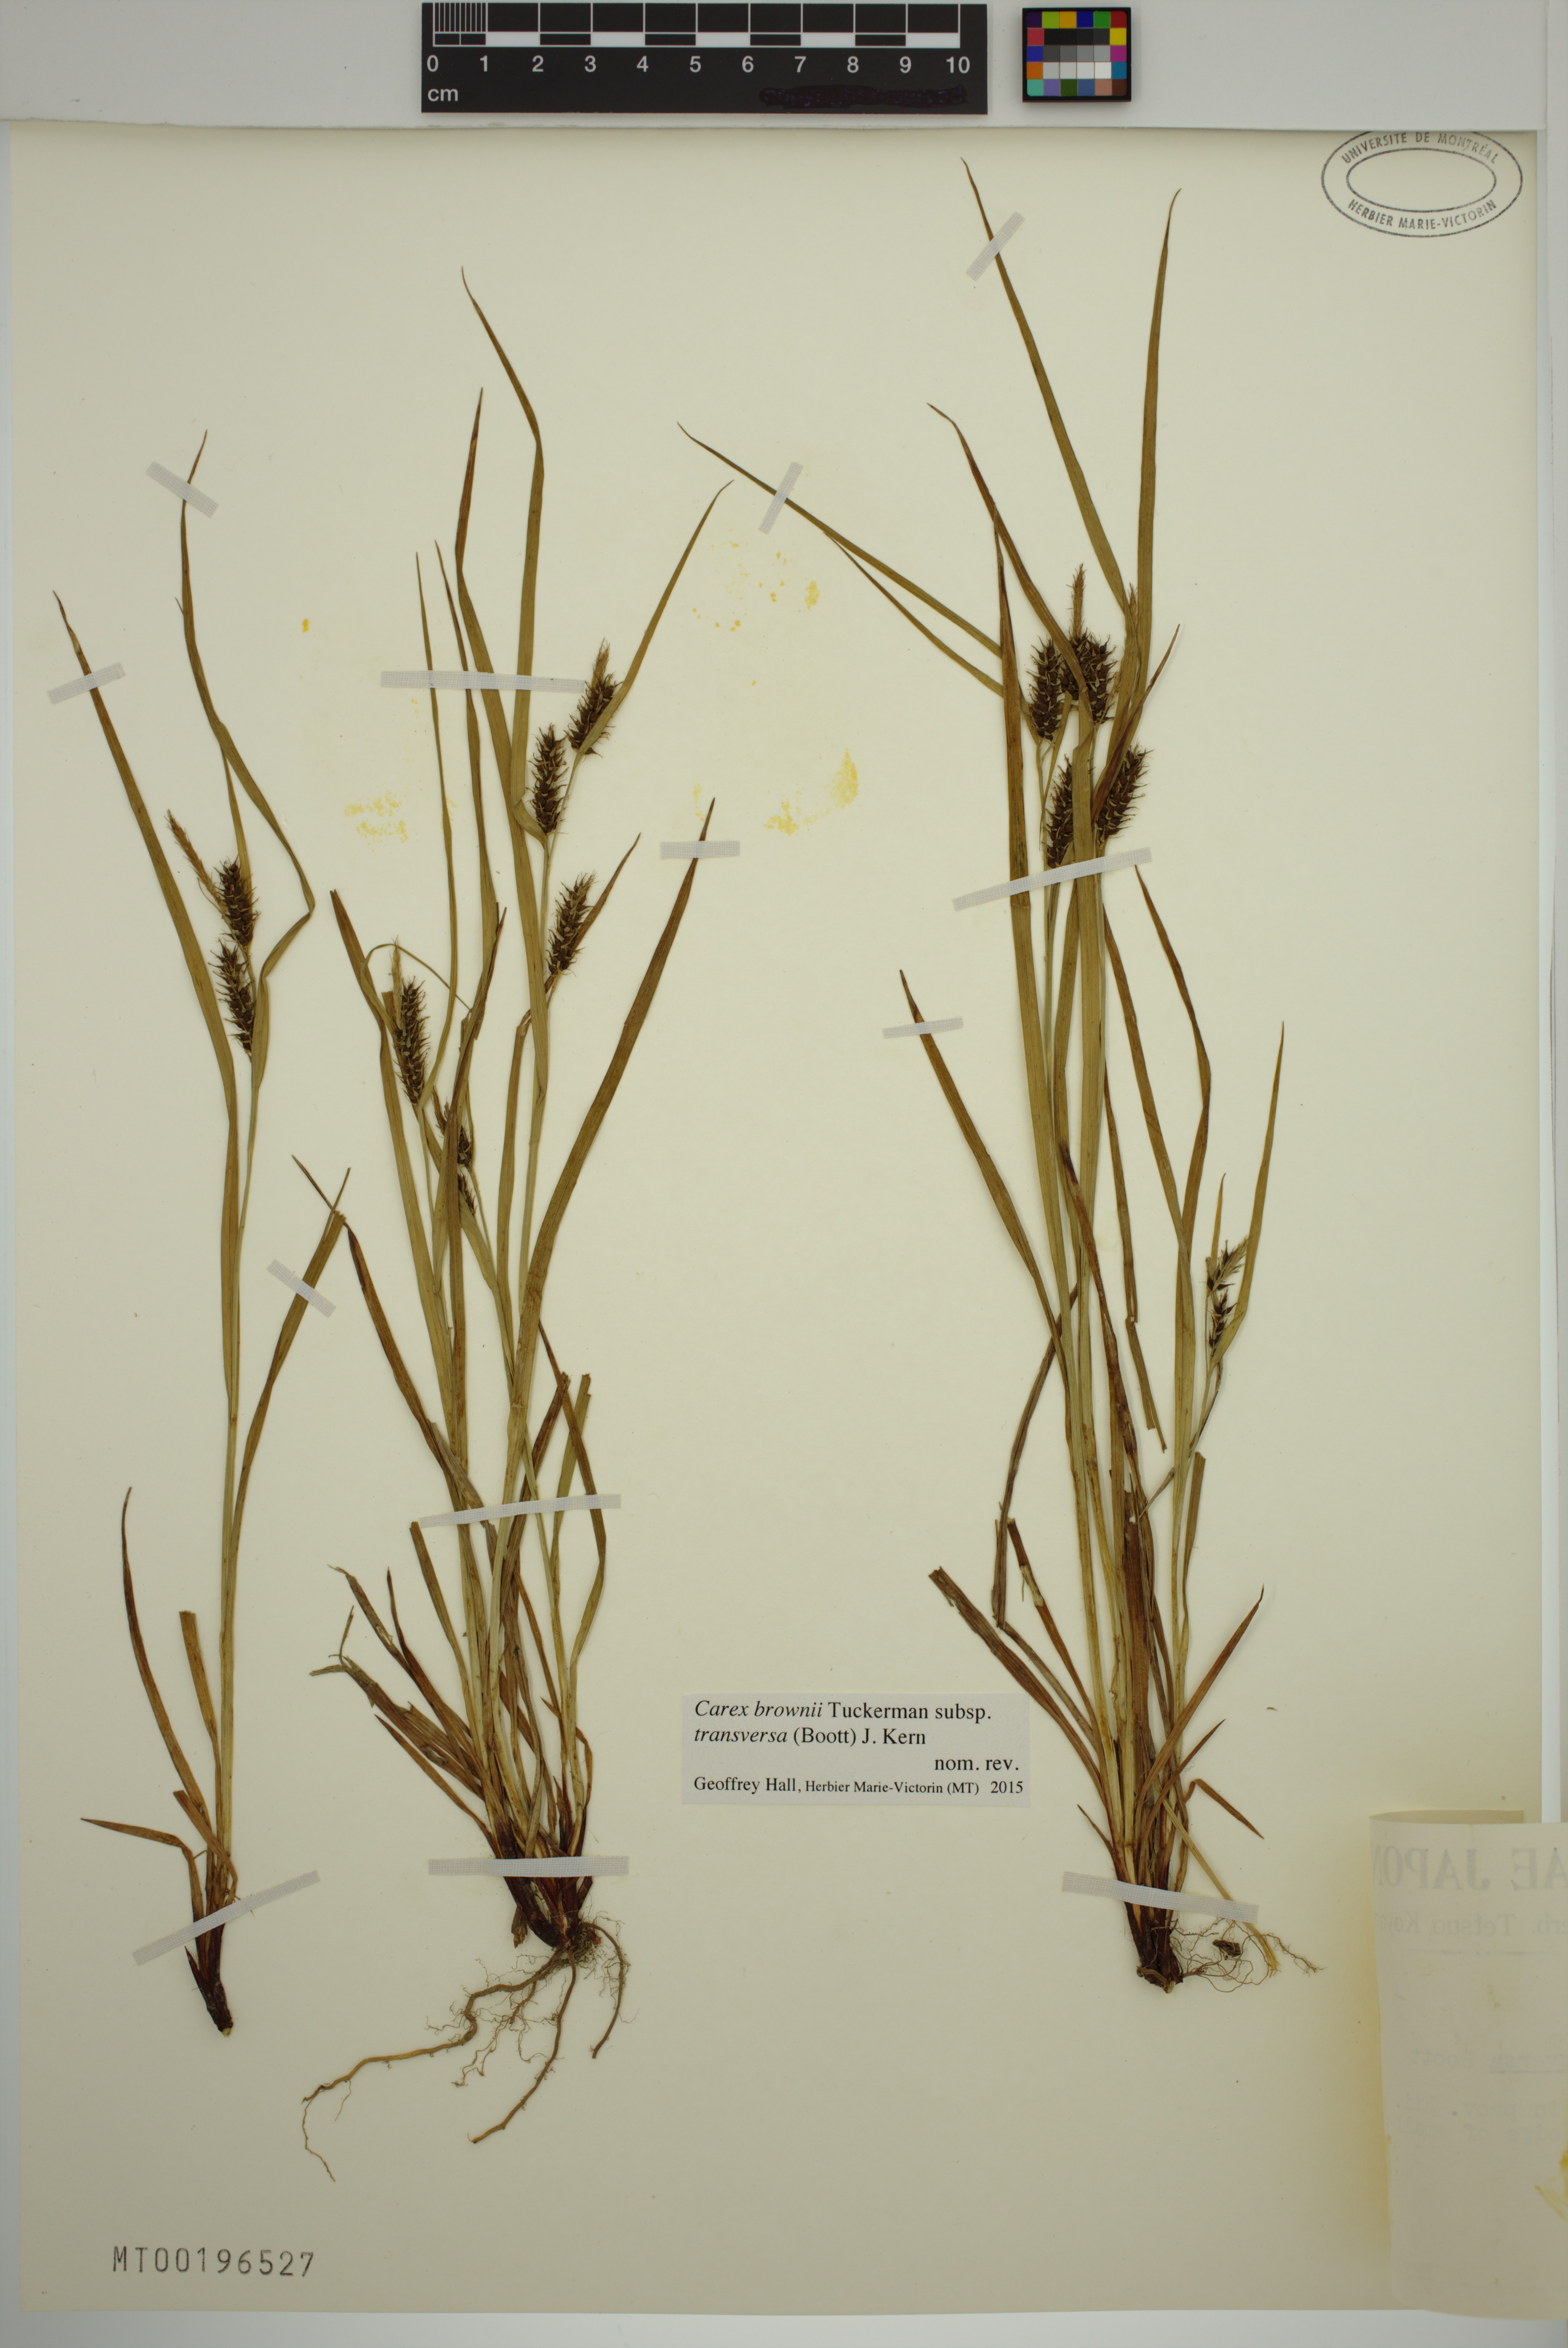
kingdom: Plantae
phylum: Tracheophyta
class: Liliopsida
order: Poales
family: Cyperaceae
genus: Carex
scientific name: Carex brownii
